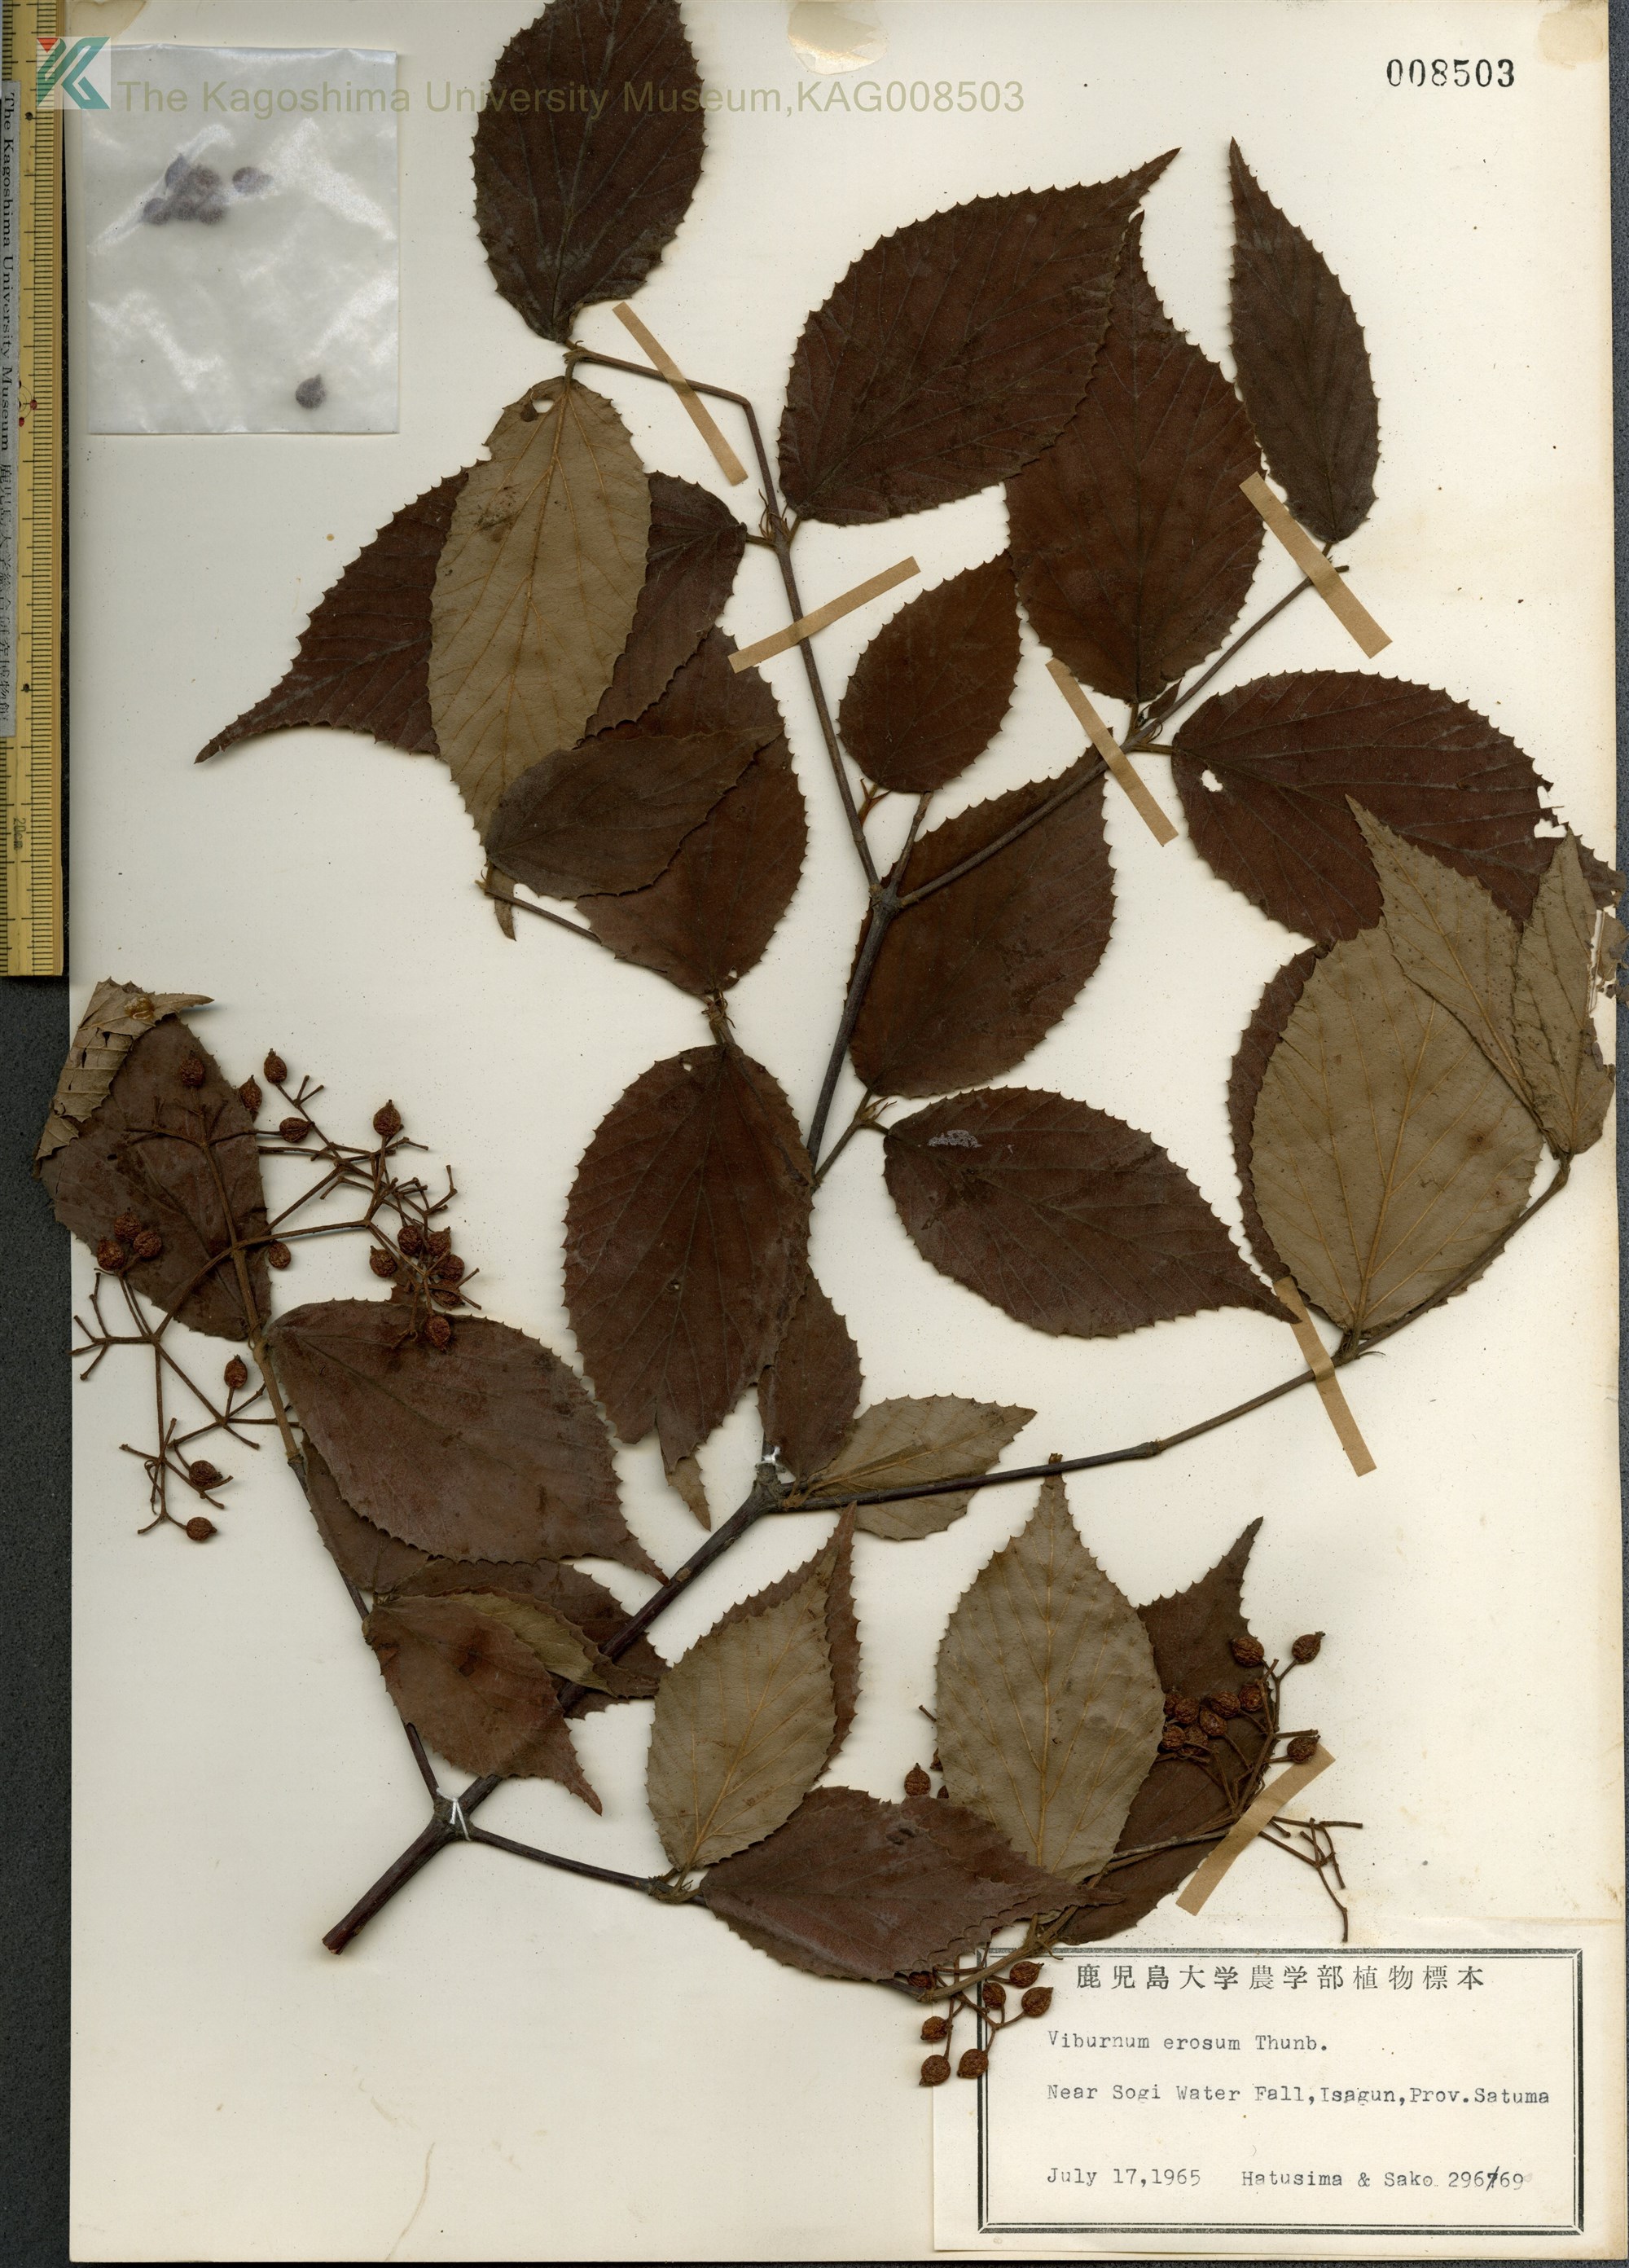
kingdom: Plantae
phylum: Tracheophyta
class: Magnoliopsida
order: Dipsacales
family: Viburnaceae
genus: Viburnum
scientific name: Viburnum erosum
